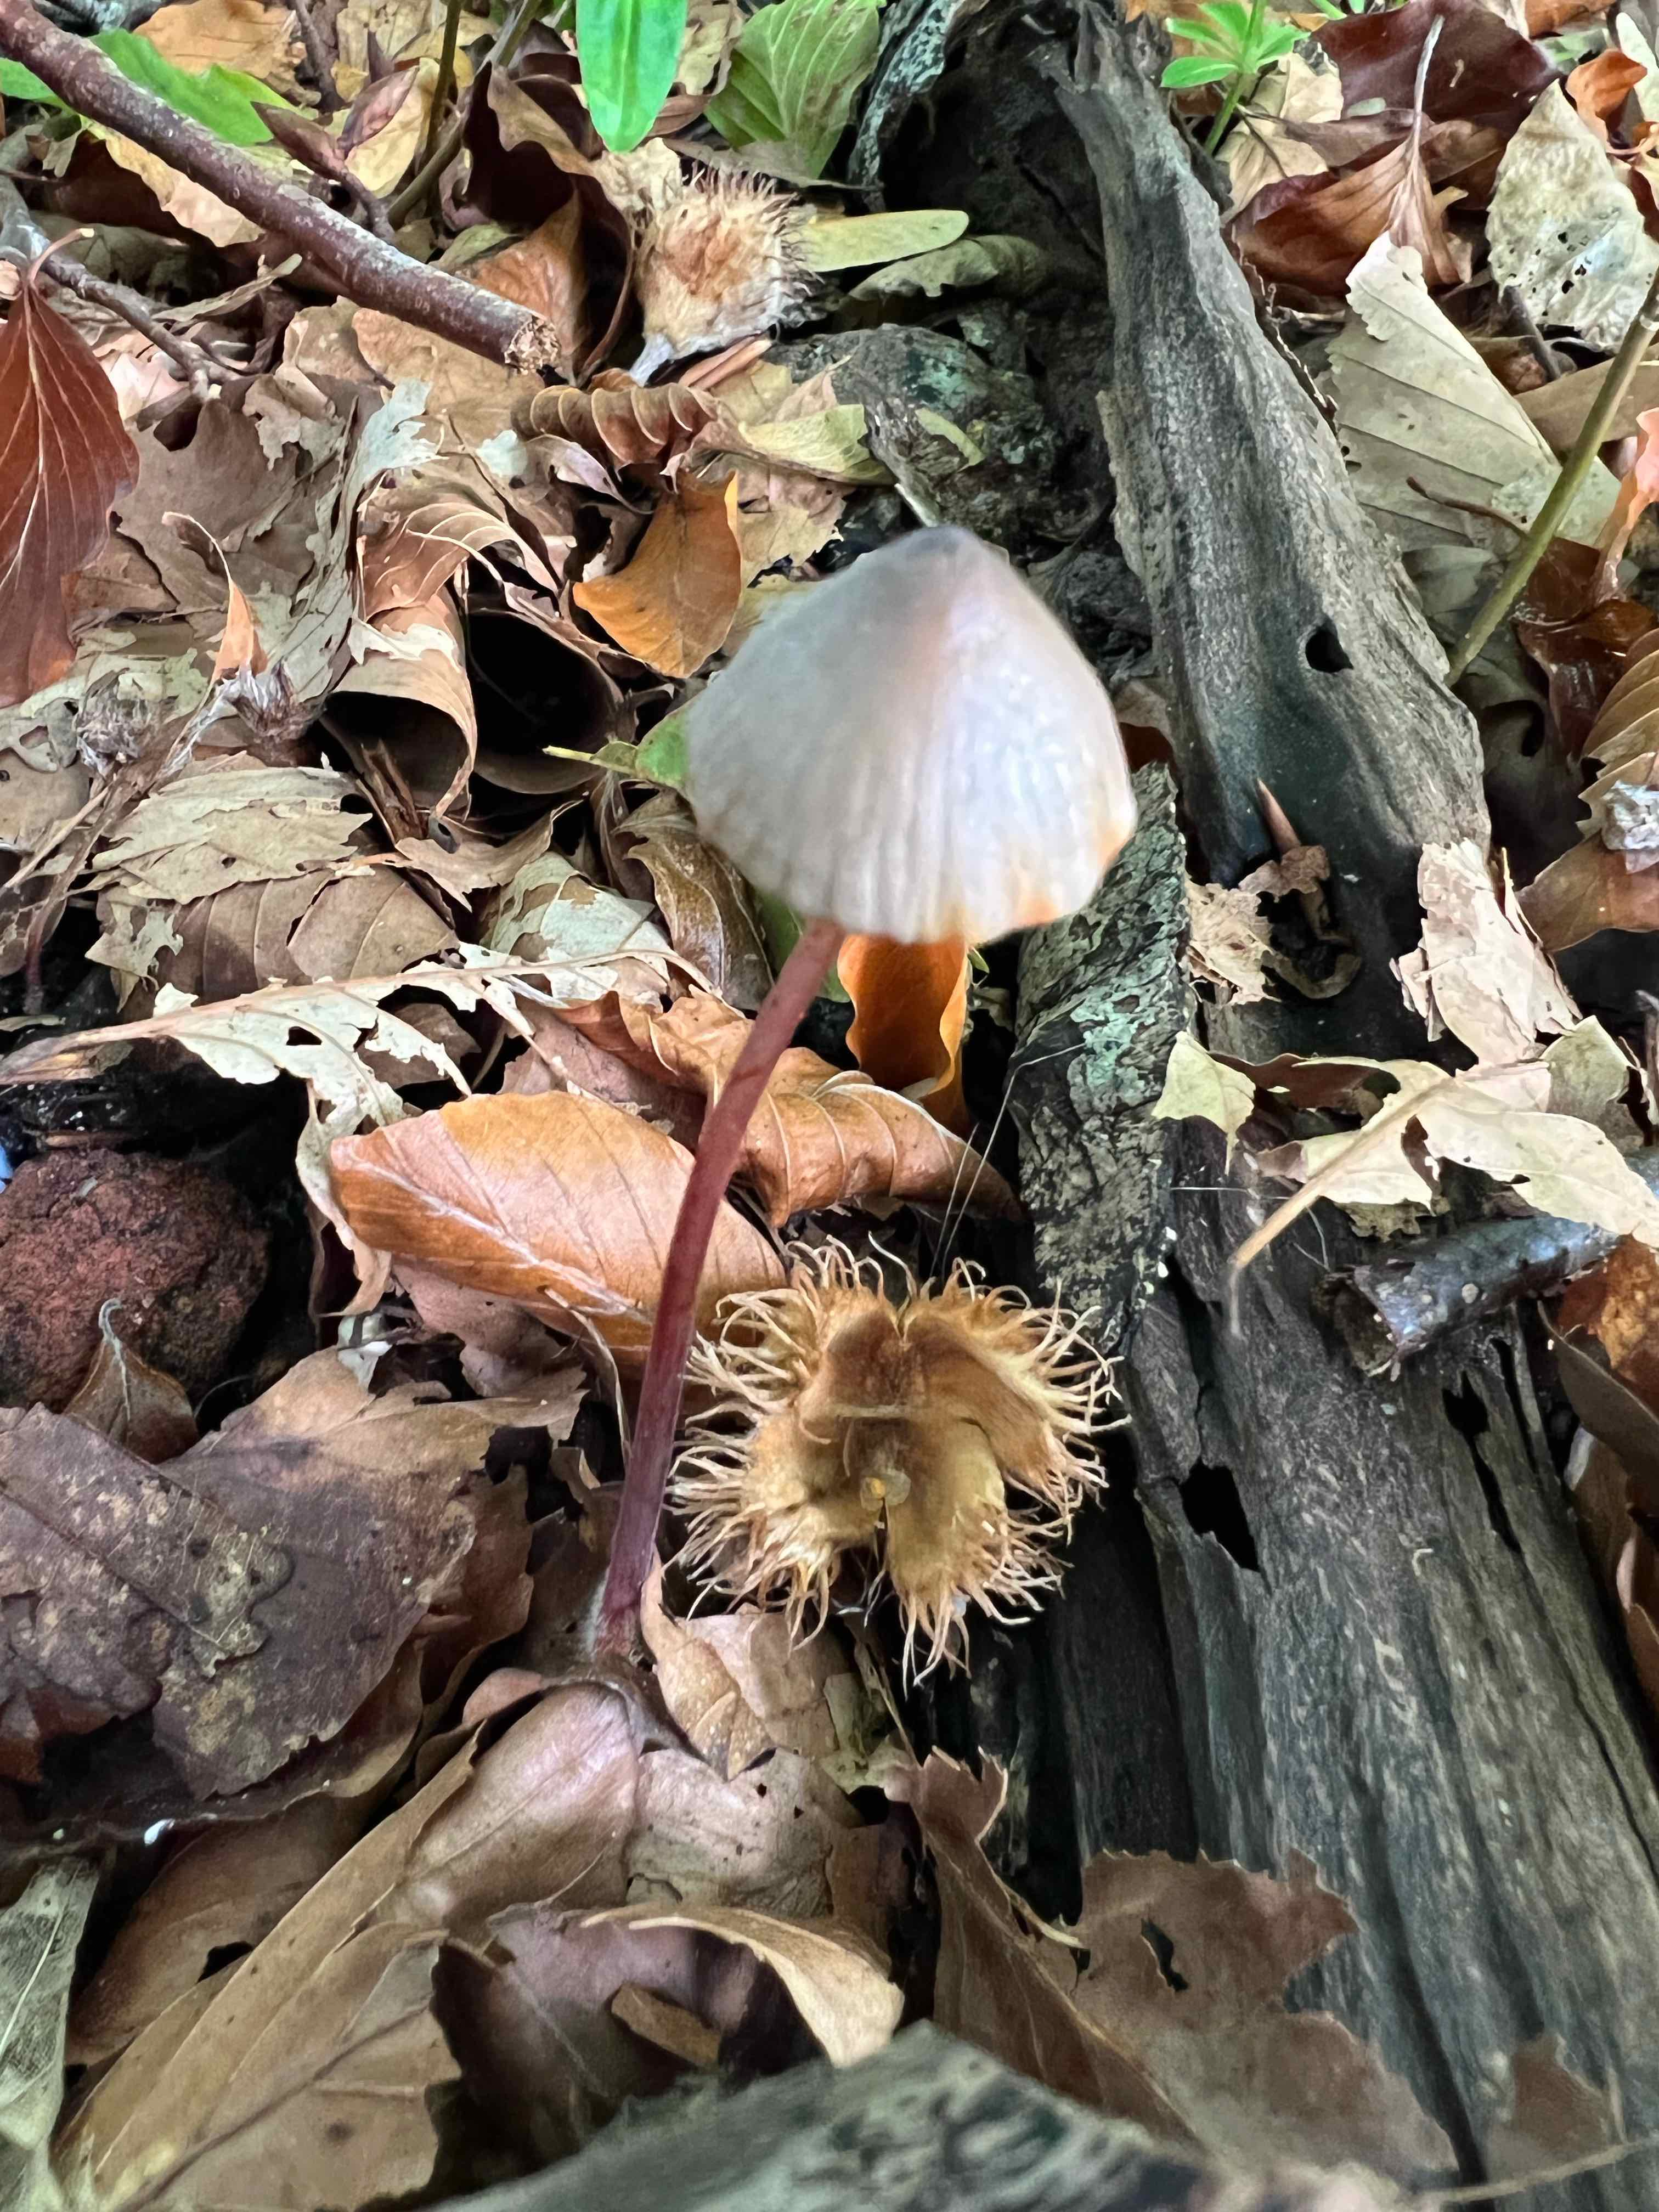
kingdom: Fungi
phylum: Basidiomycota
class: Agaricomycetes
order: Agaricales
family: Mycenaceae
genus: Mycena
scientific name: Mycena crocata
